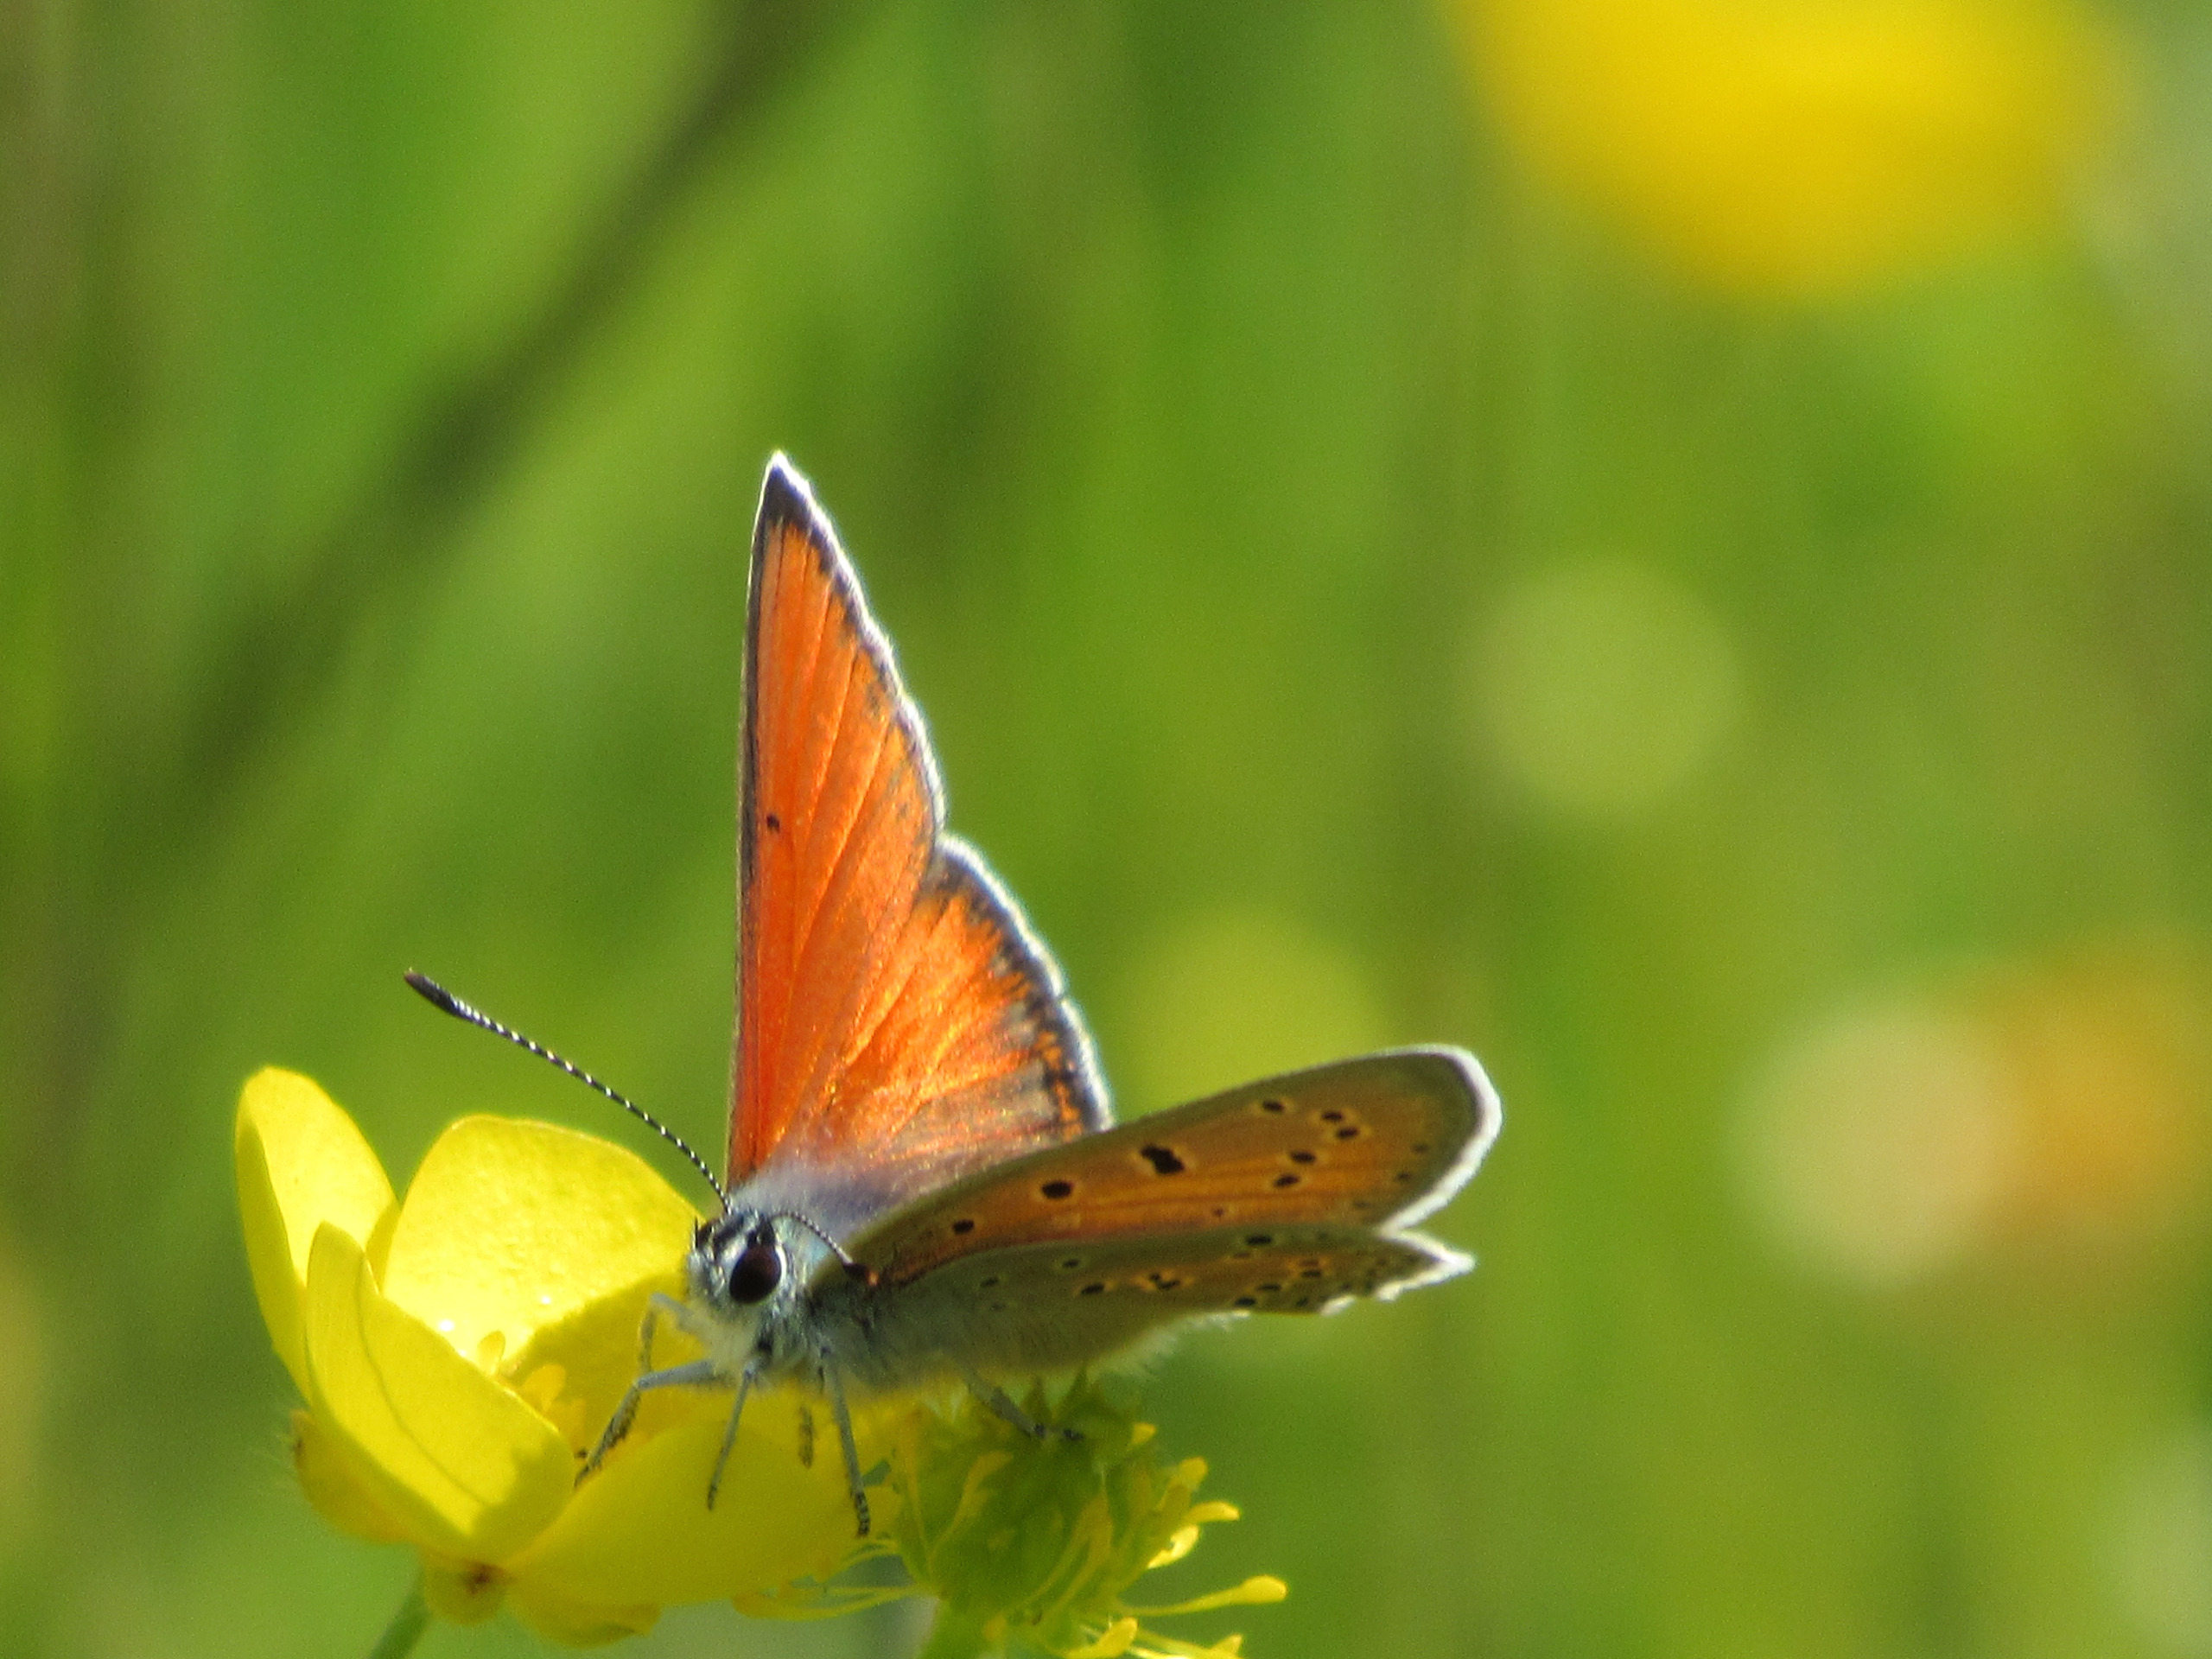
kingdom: Animalia
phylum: Arthropoda
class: Insecta
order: Lepidoptera
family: Lycaenidae
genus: Palaeochrysophanus
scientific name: Palaeochrysophanus hippothoe
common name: Violetrandet ildfugl
